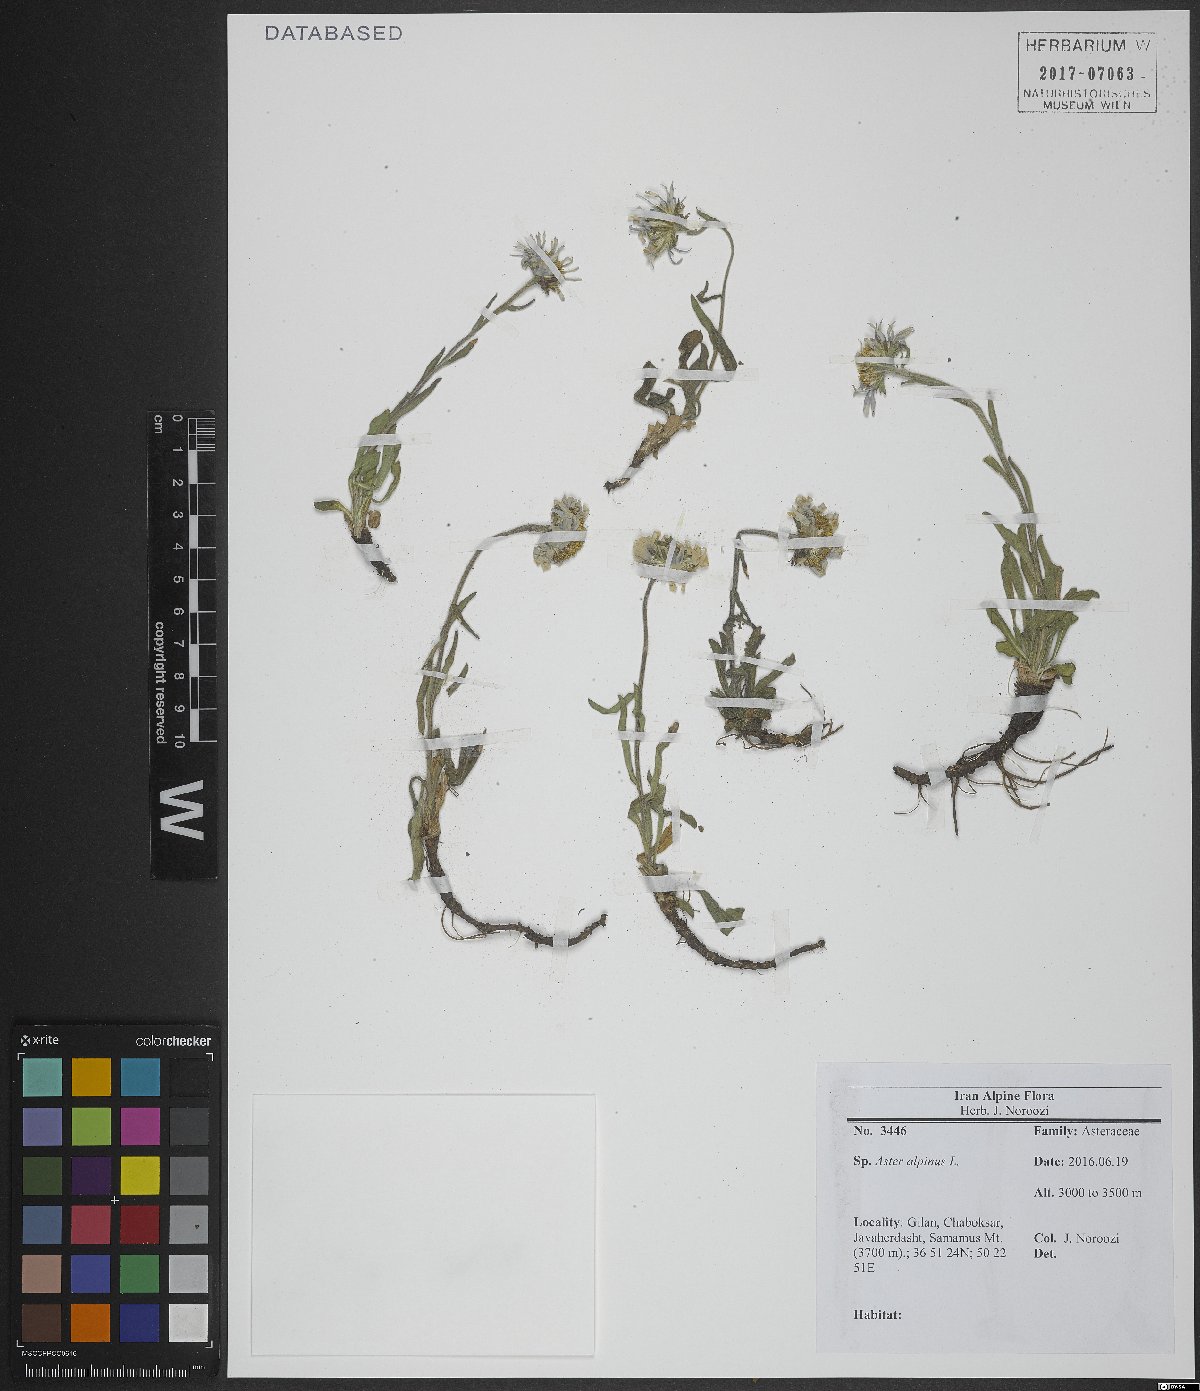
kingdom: Plantae
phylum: Tracheophyta
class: Magnoliopsida
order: Asterales
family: Asteraceae
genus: Aster
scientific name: Aster alpinus
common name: Alpine aster
